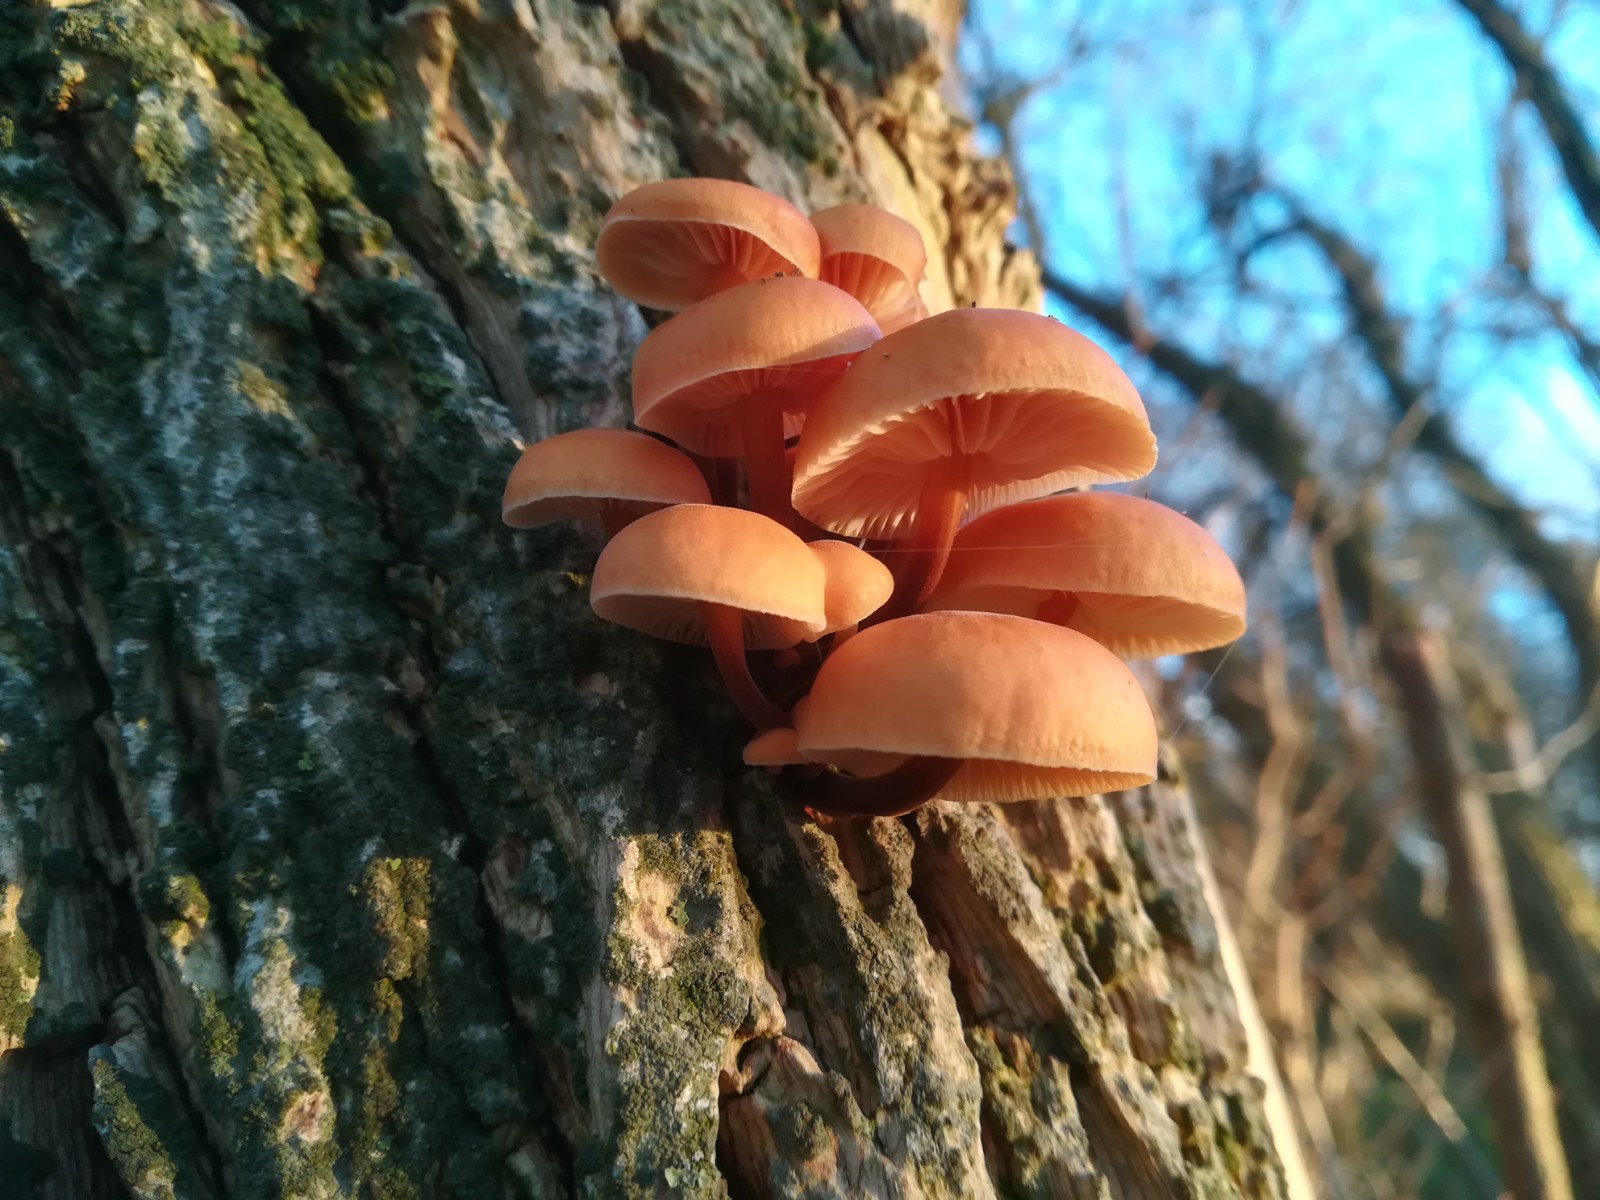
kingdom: Fungi
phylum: Basidiomycota
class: Agaricomycetes
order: Agaricales
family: Physalacriaceae
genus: Flammulina
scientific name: Flammulina velutipes
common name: gul fløjlsfod
